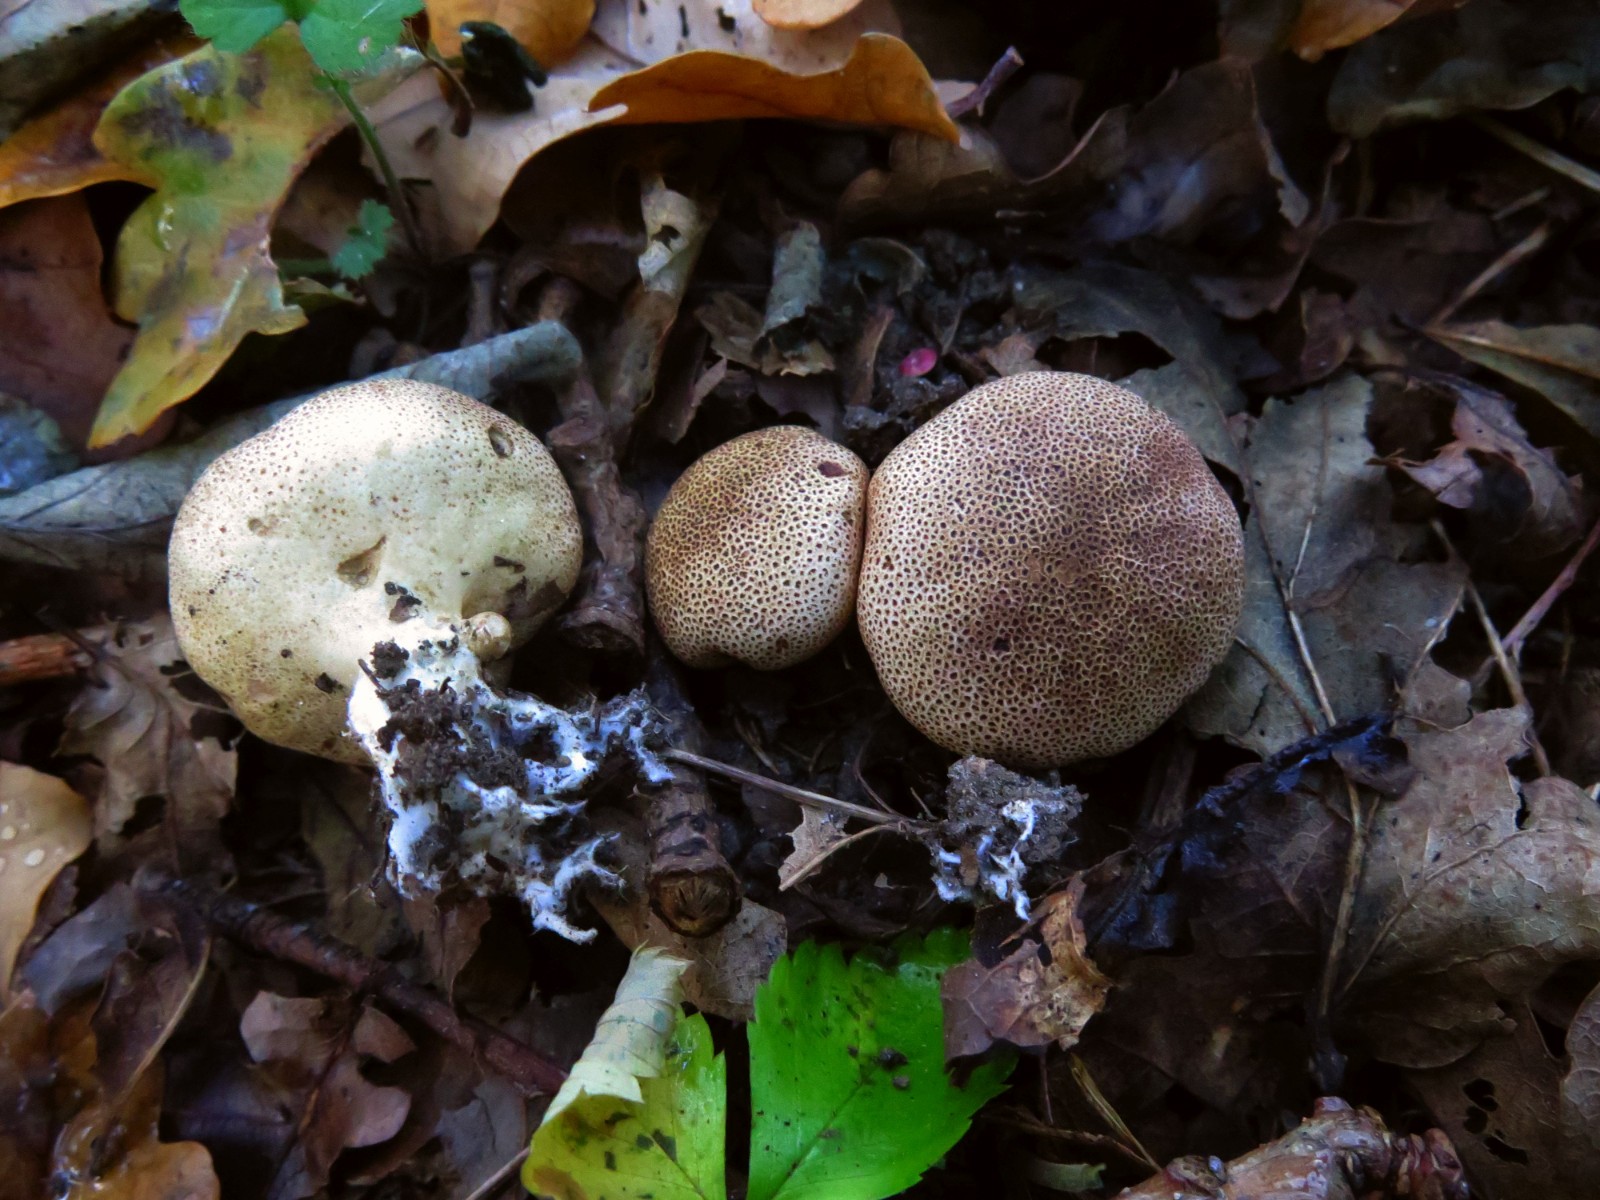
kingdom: Fungi
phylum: Basidiomycota
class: Agaricomycetes
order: Boletales
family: Sclerodermataceae
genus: Scleroderma
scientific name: Scleroderma areolatum
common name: plettet bruskbold
